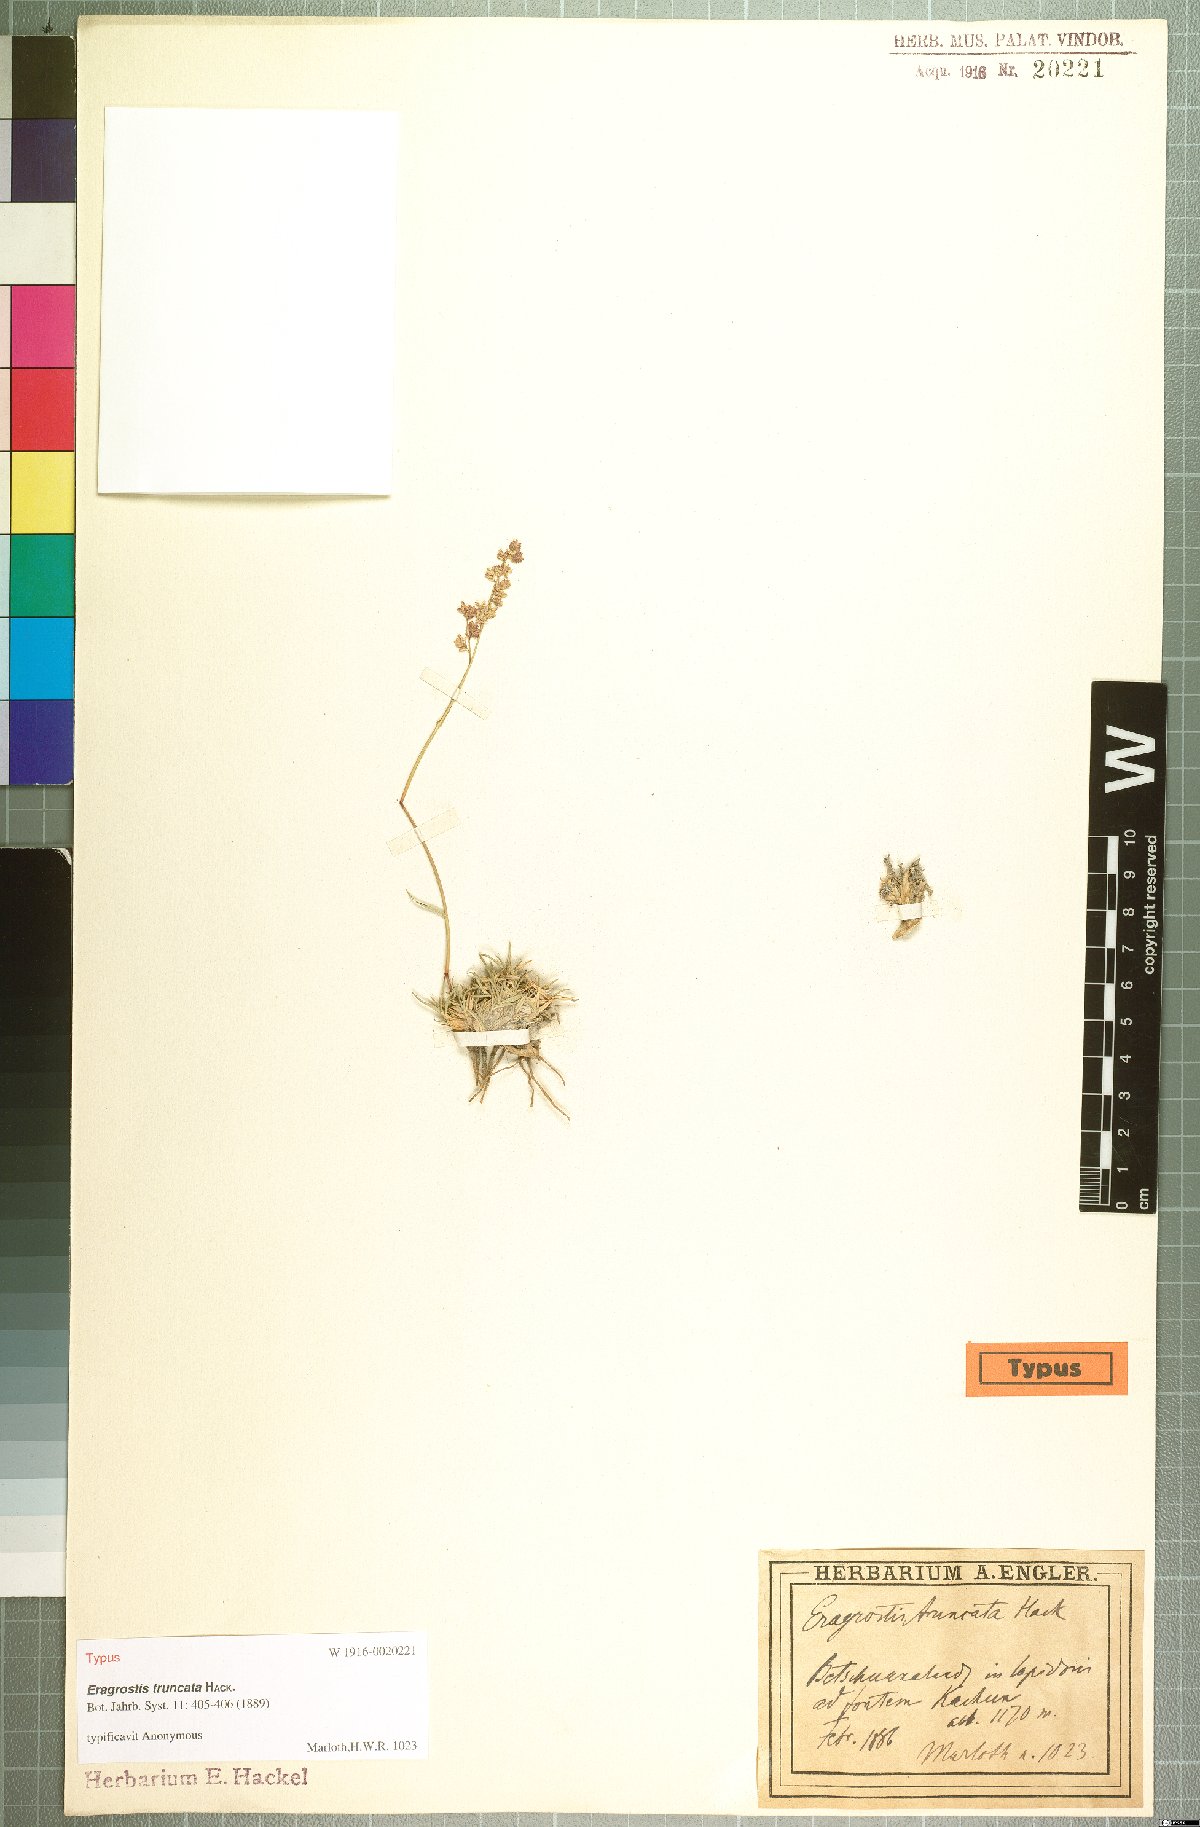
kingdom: Plantae
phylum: Tracheophyta
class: Liliopsida
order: Poales
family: Poaceae
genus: Eragrostis
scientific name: Eragrostis truncata
